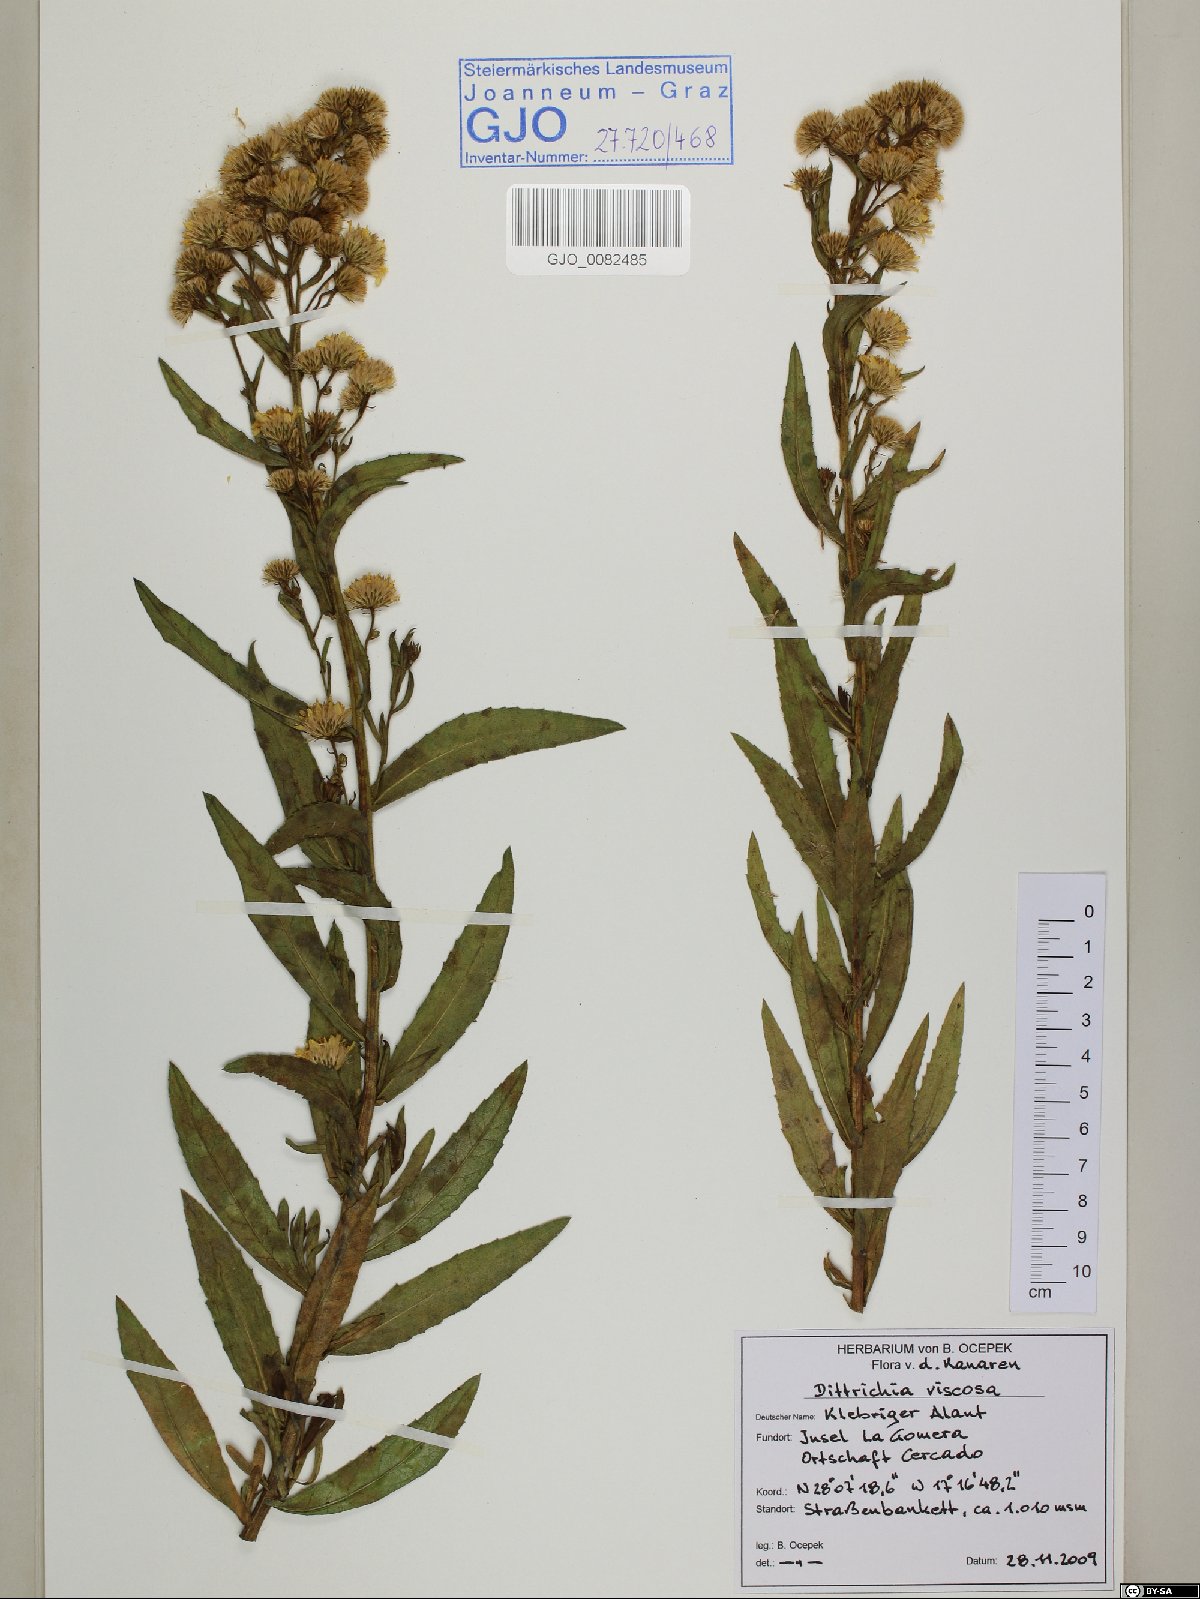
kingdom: Plantae
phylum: Tracheophyta
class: Magnoliopsida
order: Asterales
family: Asteraceae
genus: Dittrichia
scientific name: Dittrichia viscosa
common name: Woody fleabane
